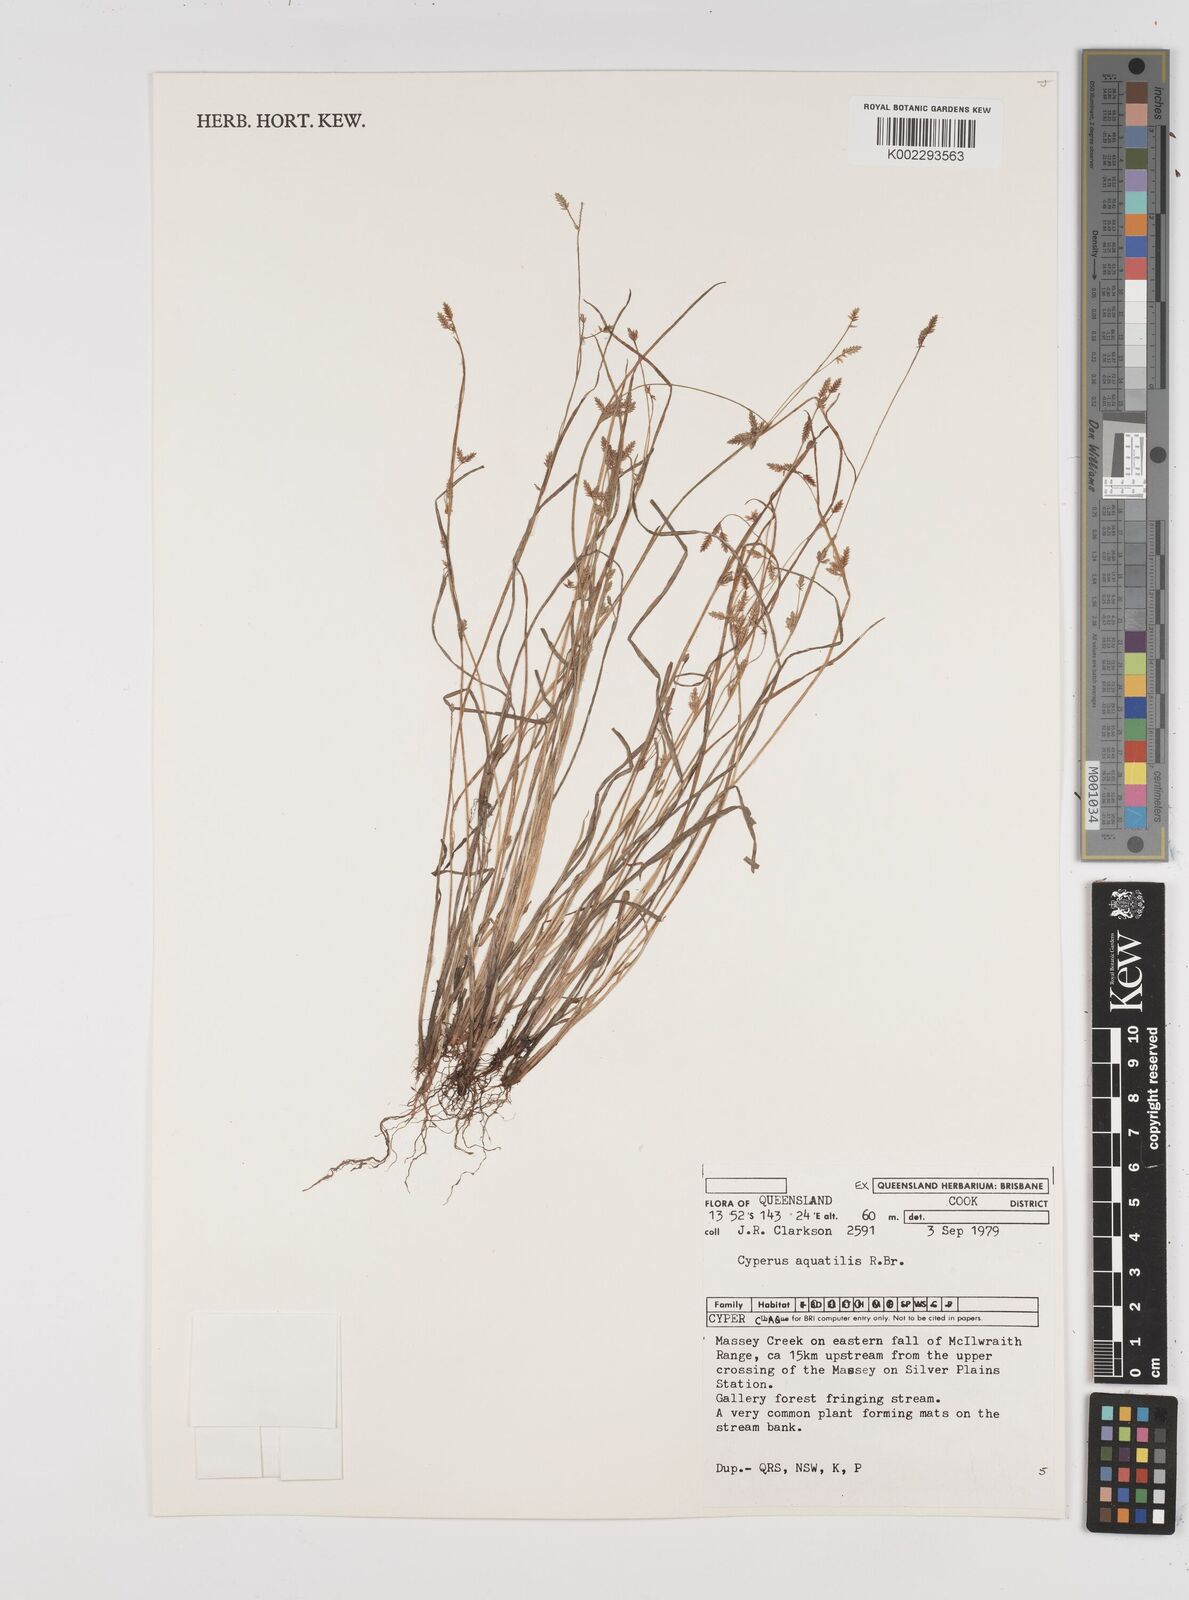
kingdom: Plantae
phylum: Tracheophyta
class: Liliopsida
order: Poales
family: Cyperaceae
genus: Cyperus
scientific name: Cyperus aquatilis
